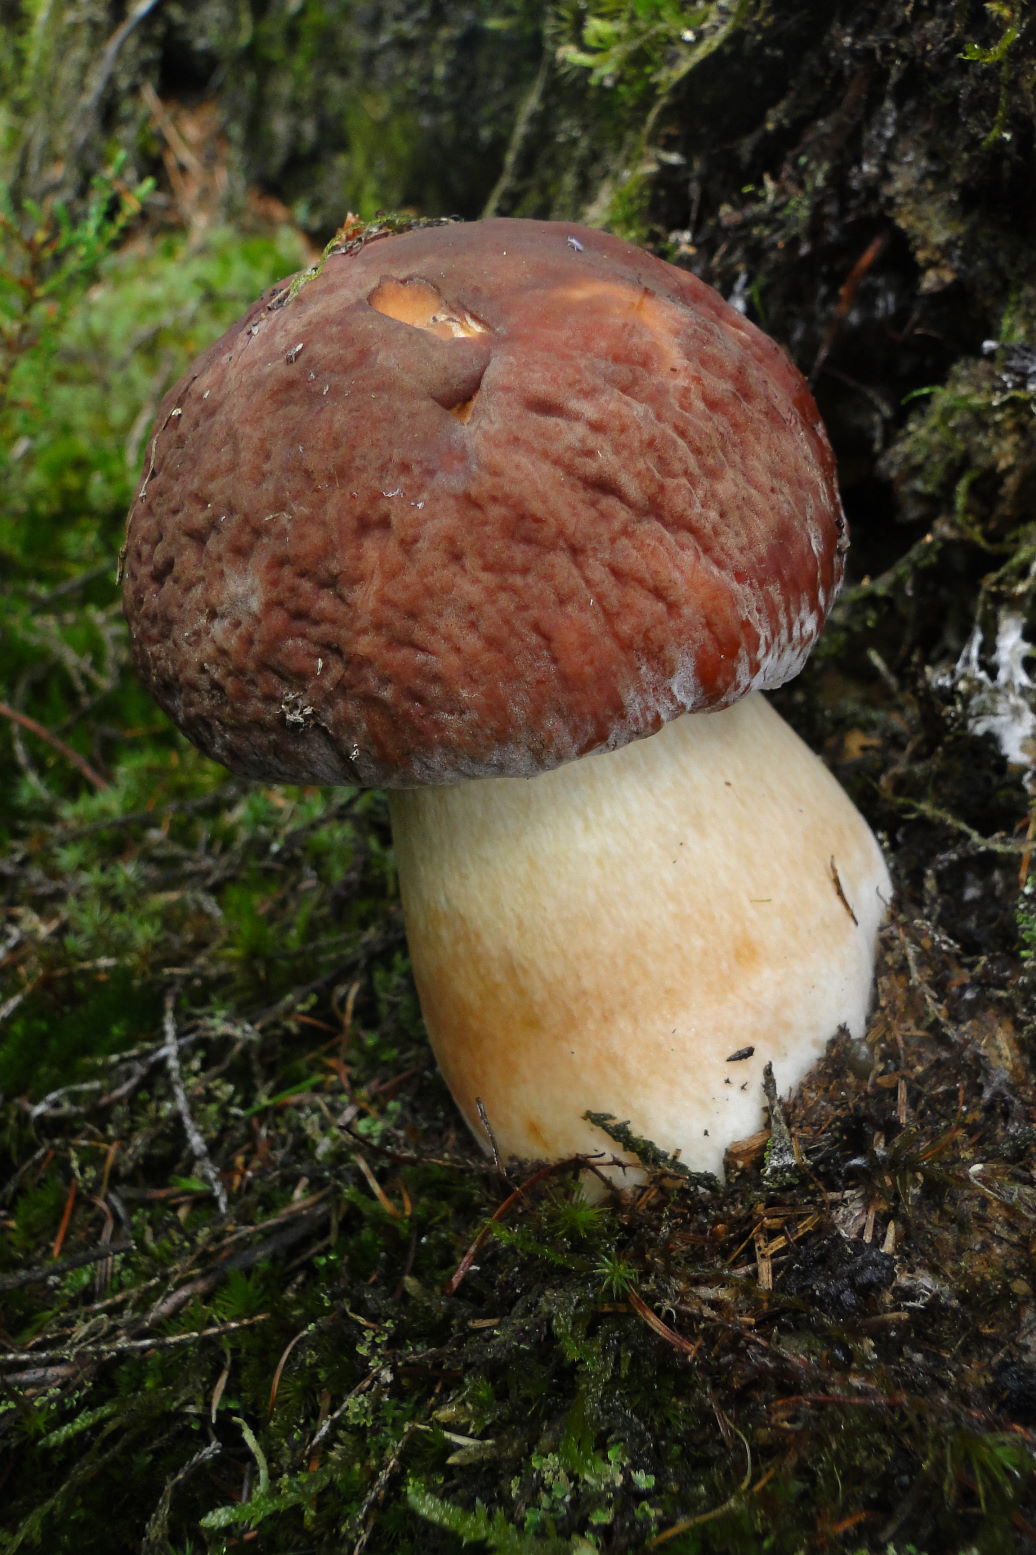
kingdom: Fungi
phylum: Basidiomycota
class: Agaricomycetes
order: Boletales
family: Boletaceae
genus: Boletus
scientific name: Boletus pinophilus
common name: rødbrun rørhat
